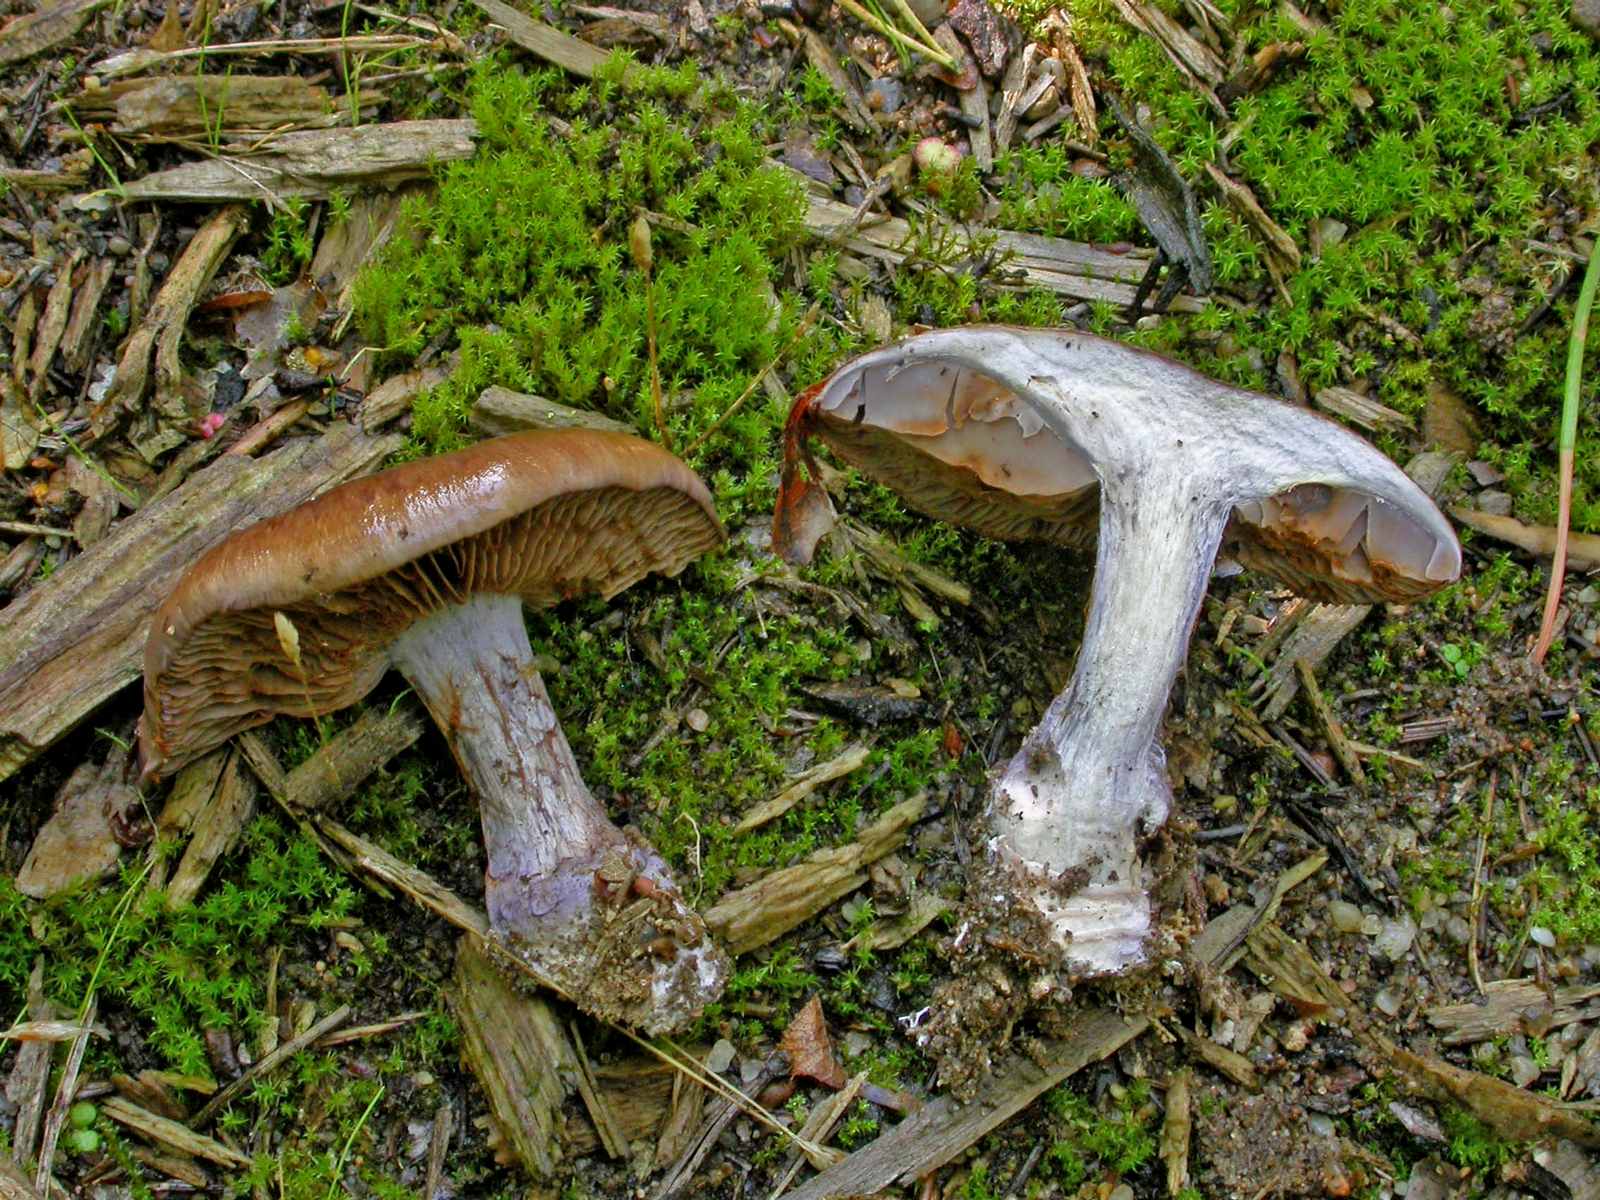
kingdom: Fungi
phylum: Basidiomycota
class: Agaricomycetes
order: Agaricales
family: Cortinariaceae
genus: Thaxterogaster
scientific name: Thaxterogaster purpurascens
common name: purpurbrun slørhat
